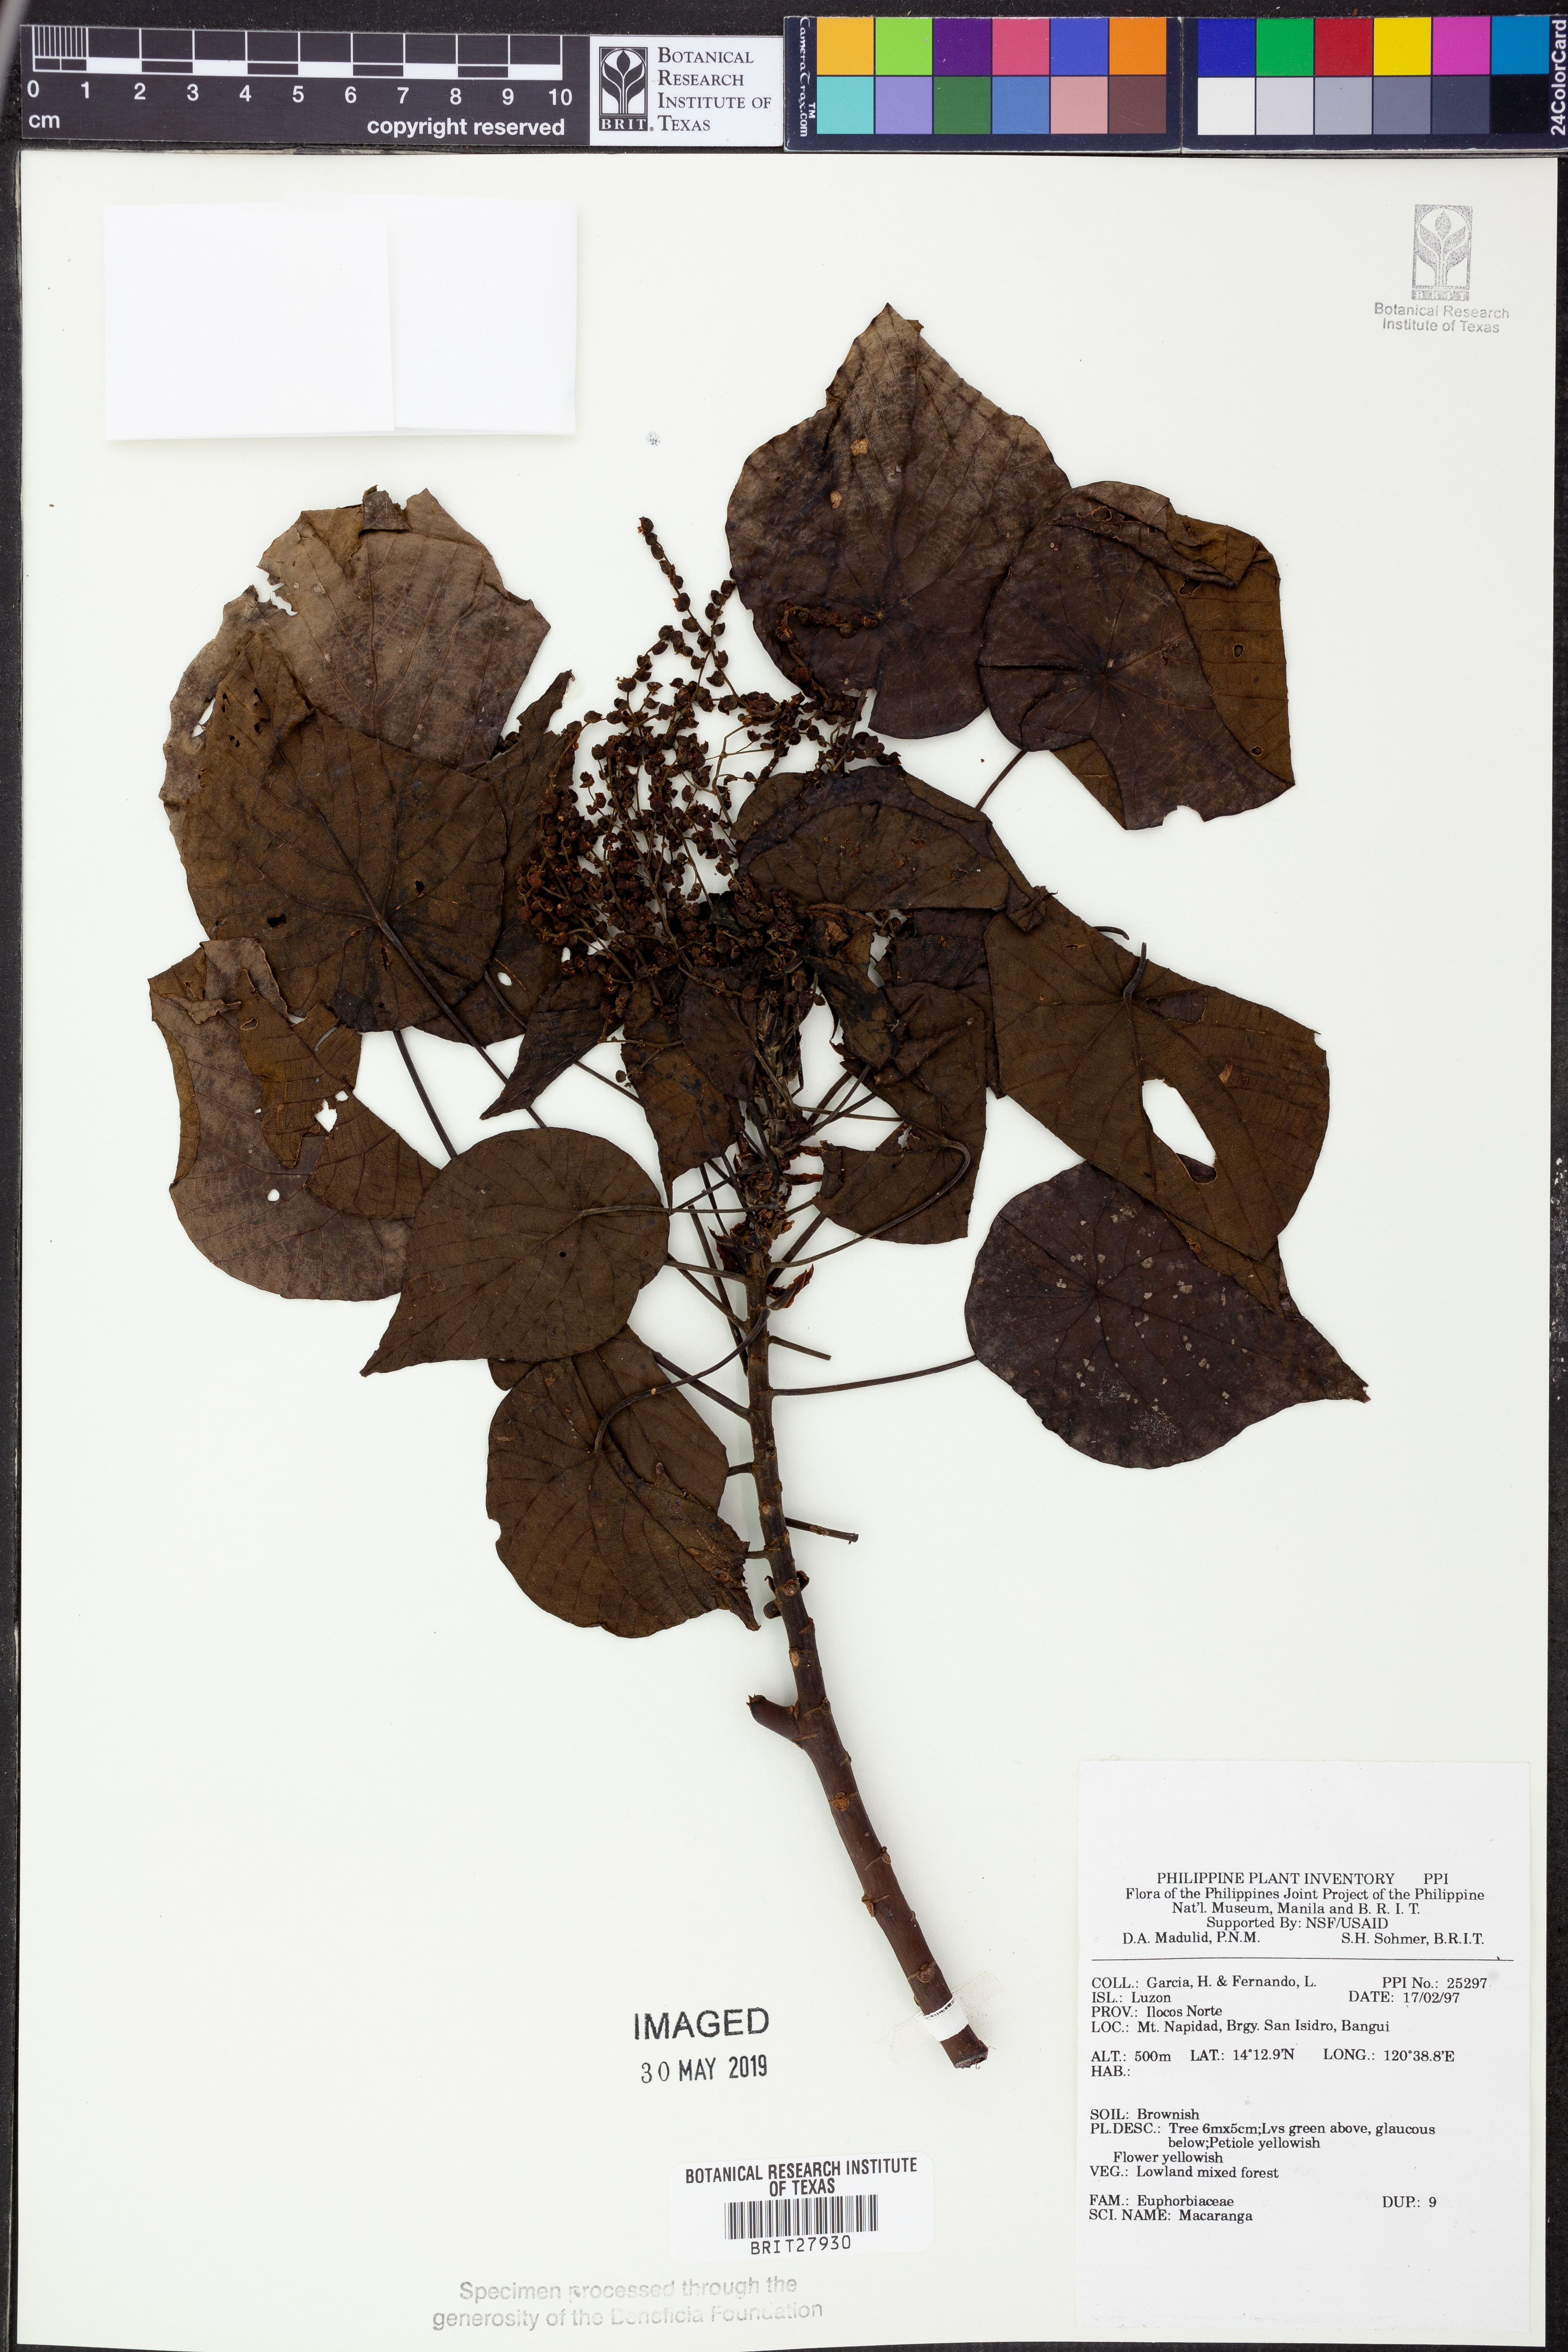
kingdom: Plantae
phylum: Tracheophyta
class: Magnoliopsida
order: Malpighiales
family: Euphorbiaceae
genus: Macaranga
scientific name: Macaranga
